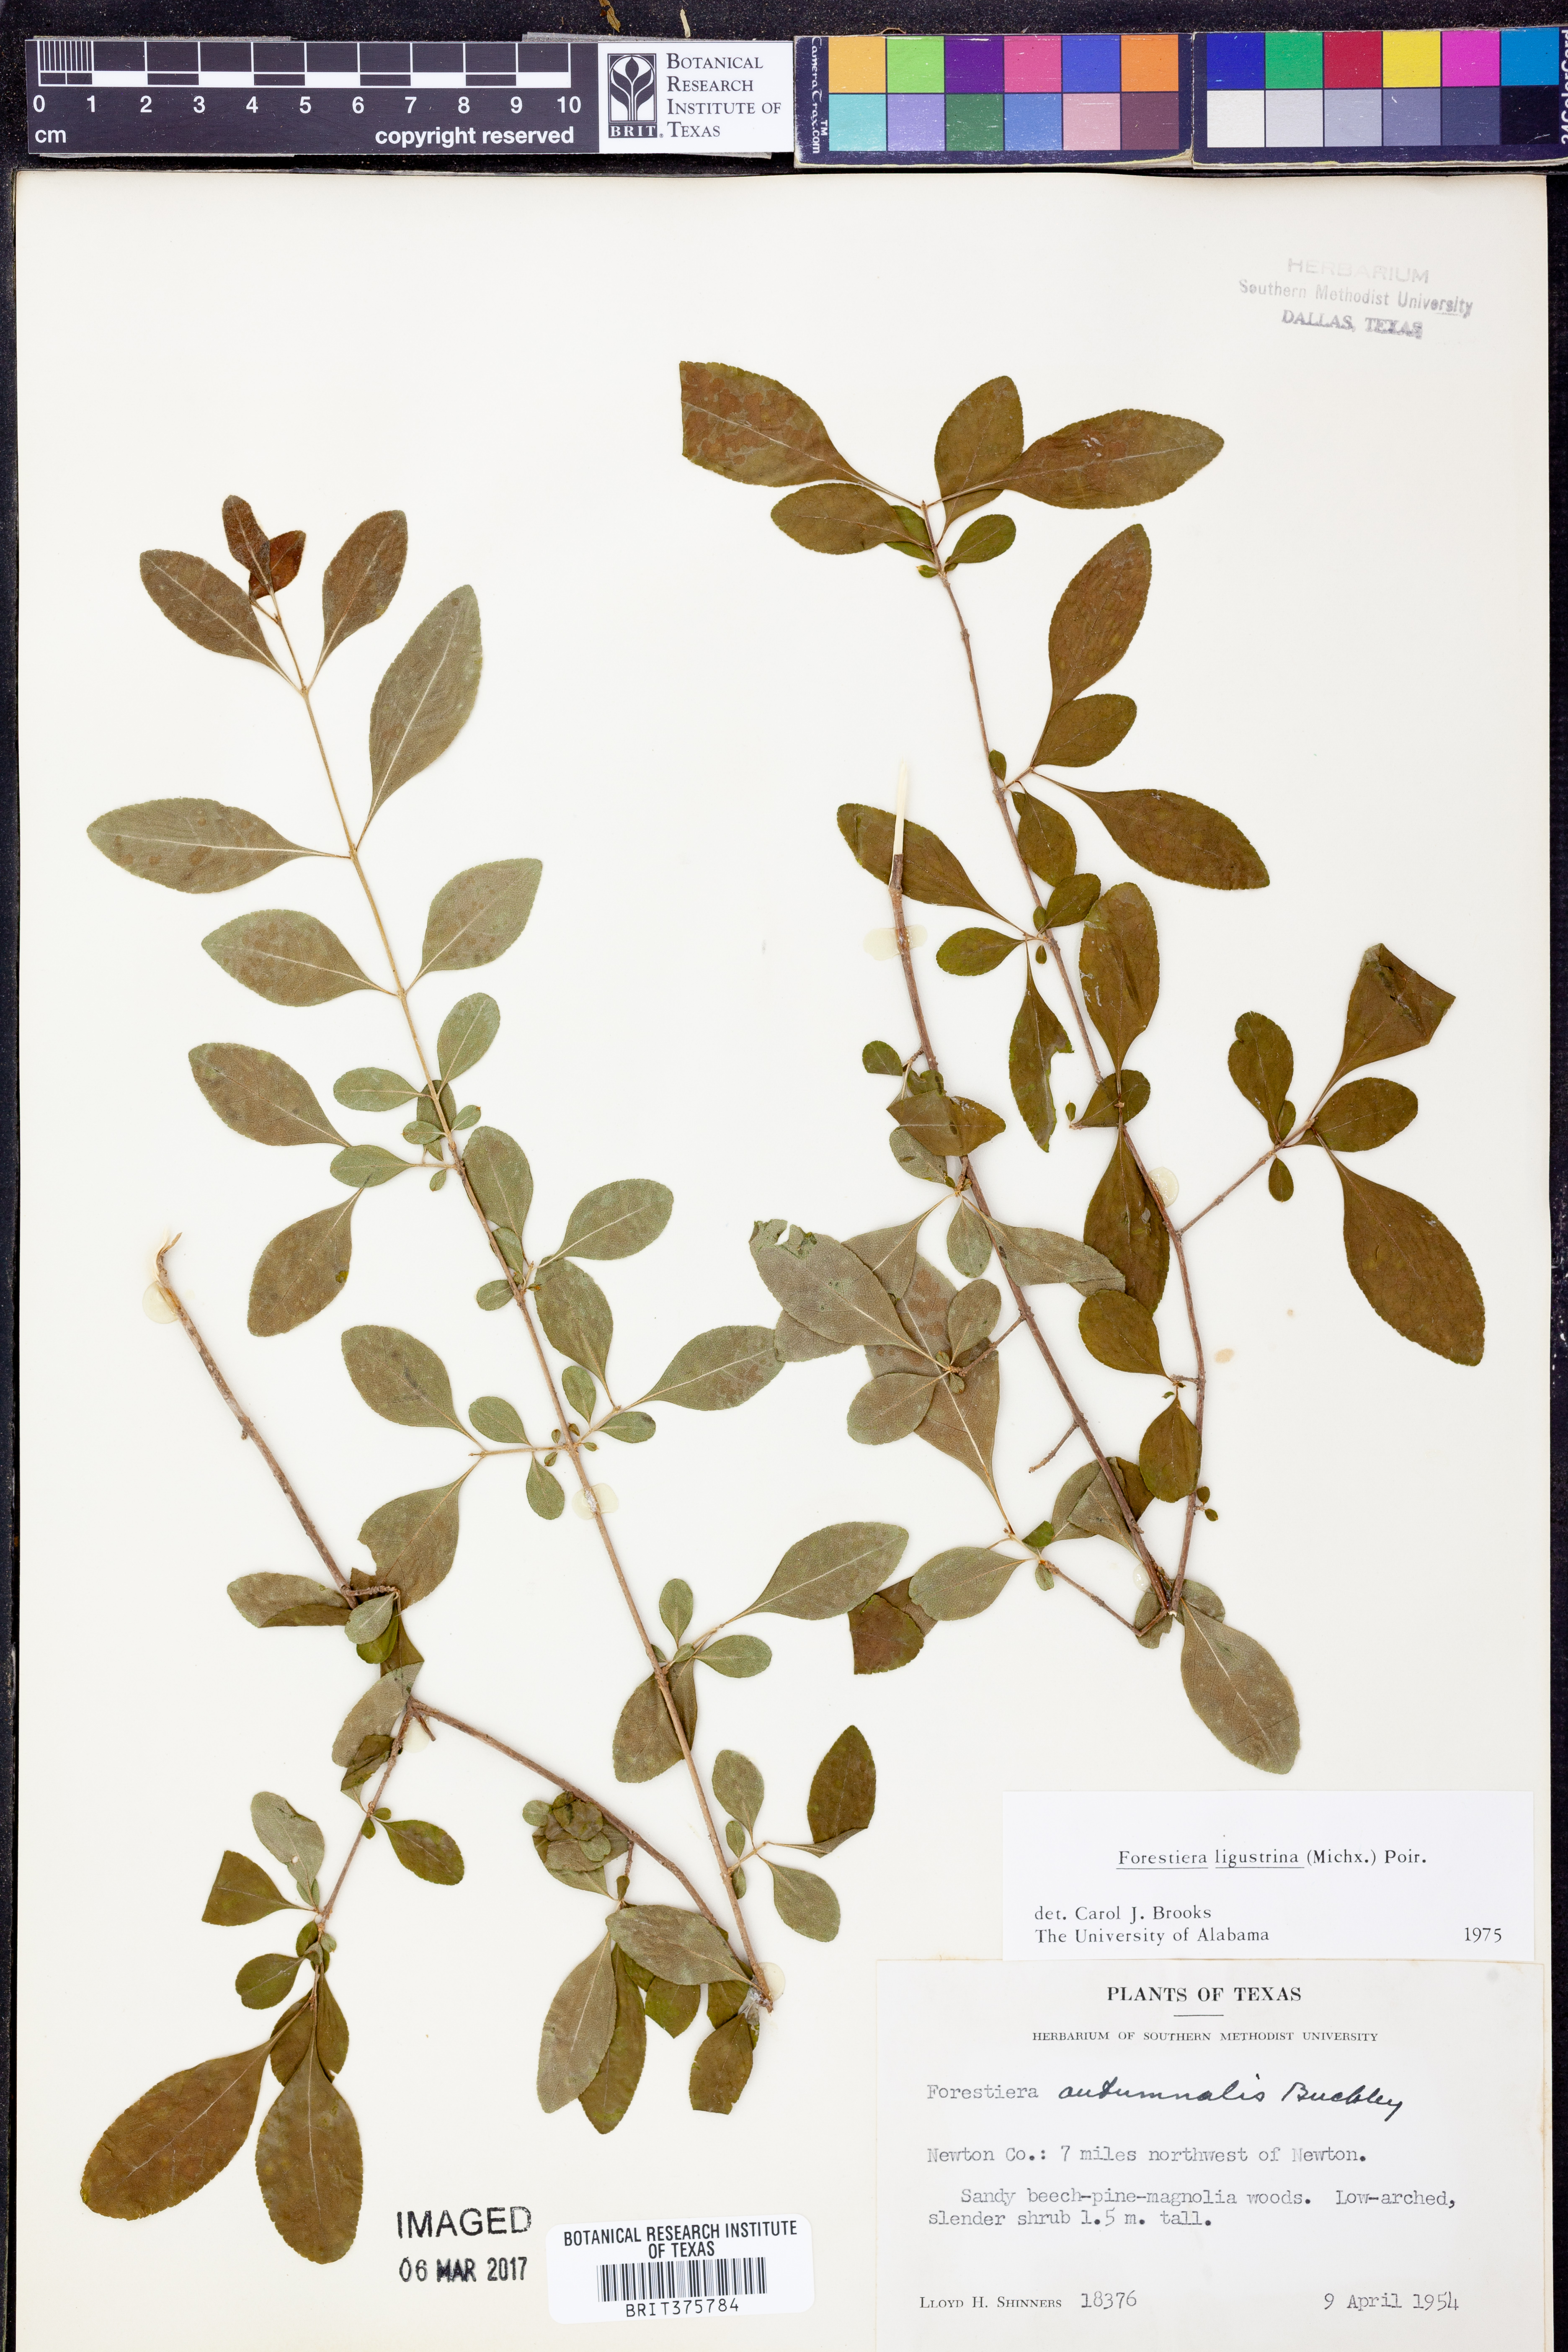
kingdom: Plantae
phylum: Tracheophyta
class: Magnoliopsida
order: Lamiales
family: Oleaceae
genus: Forestiera
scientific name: Forestiera ligustrina
